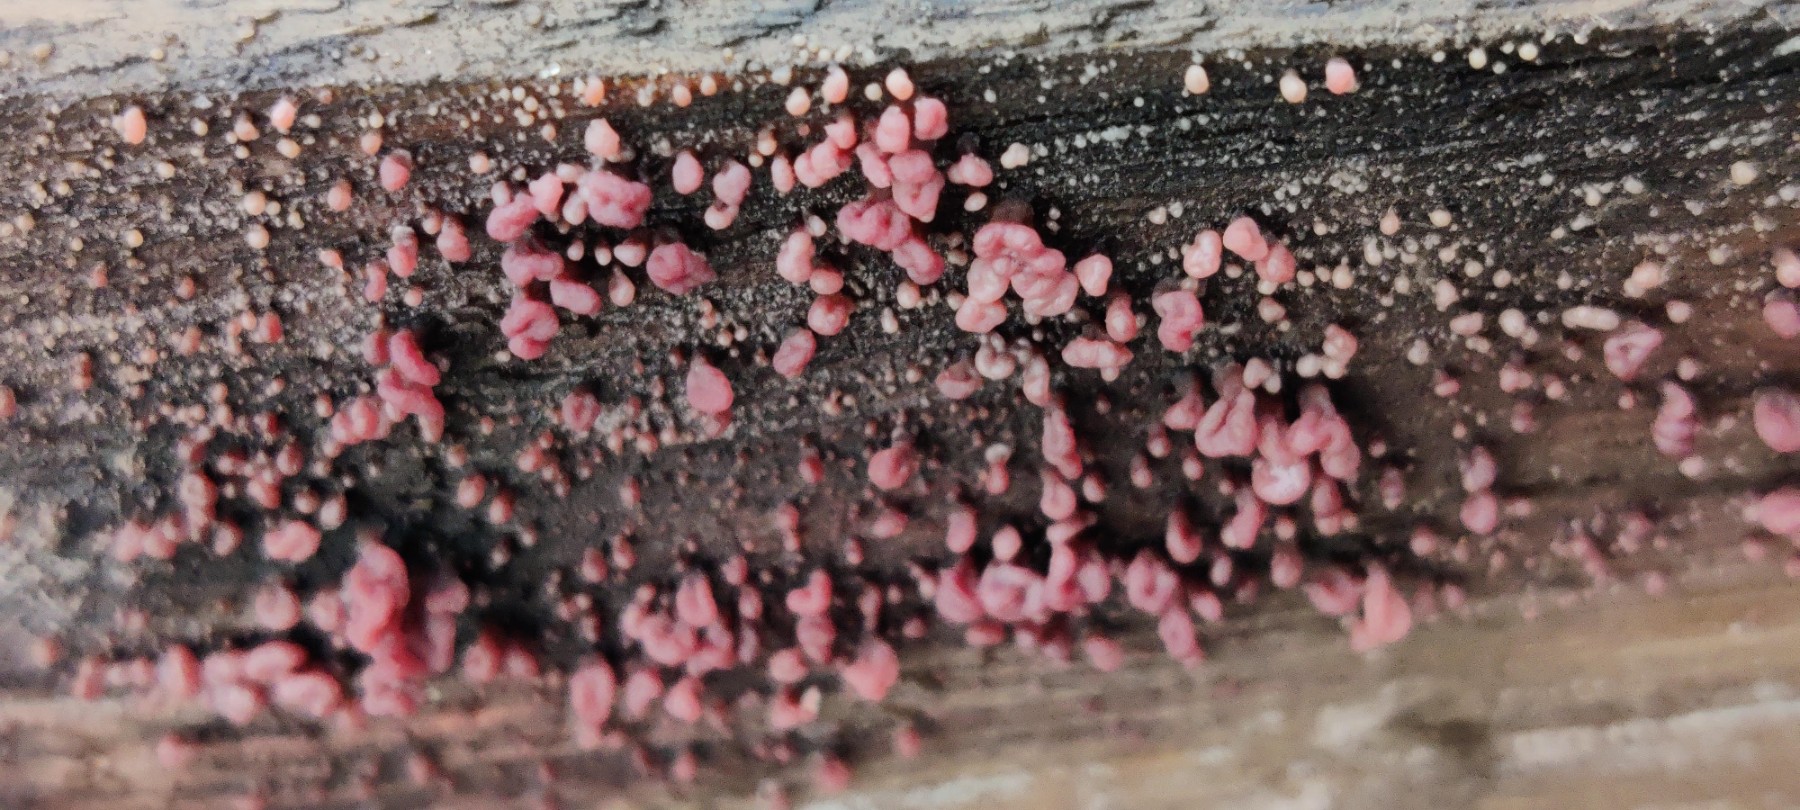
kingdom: Fungi
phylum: Ascomycota
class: Leotiomycetes
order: Helotiales
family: Gelatinodiscaceae
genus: Ascocoryne
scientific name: Ascocoryne sarcoides
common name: rødlilla sejskive
